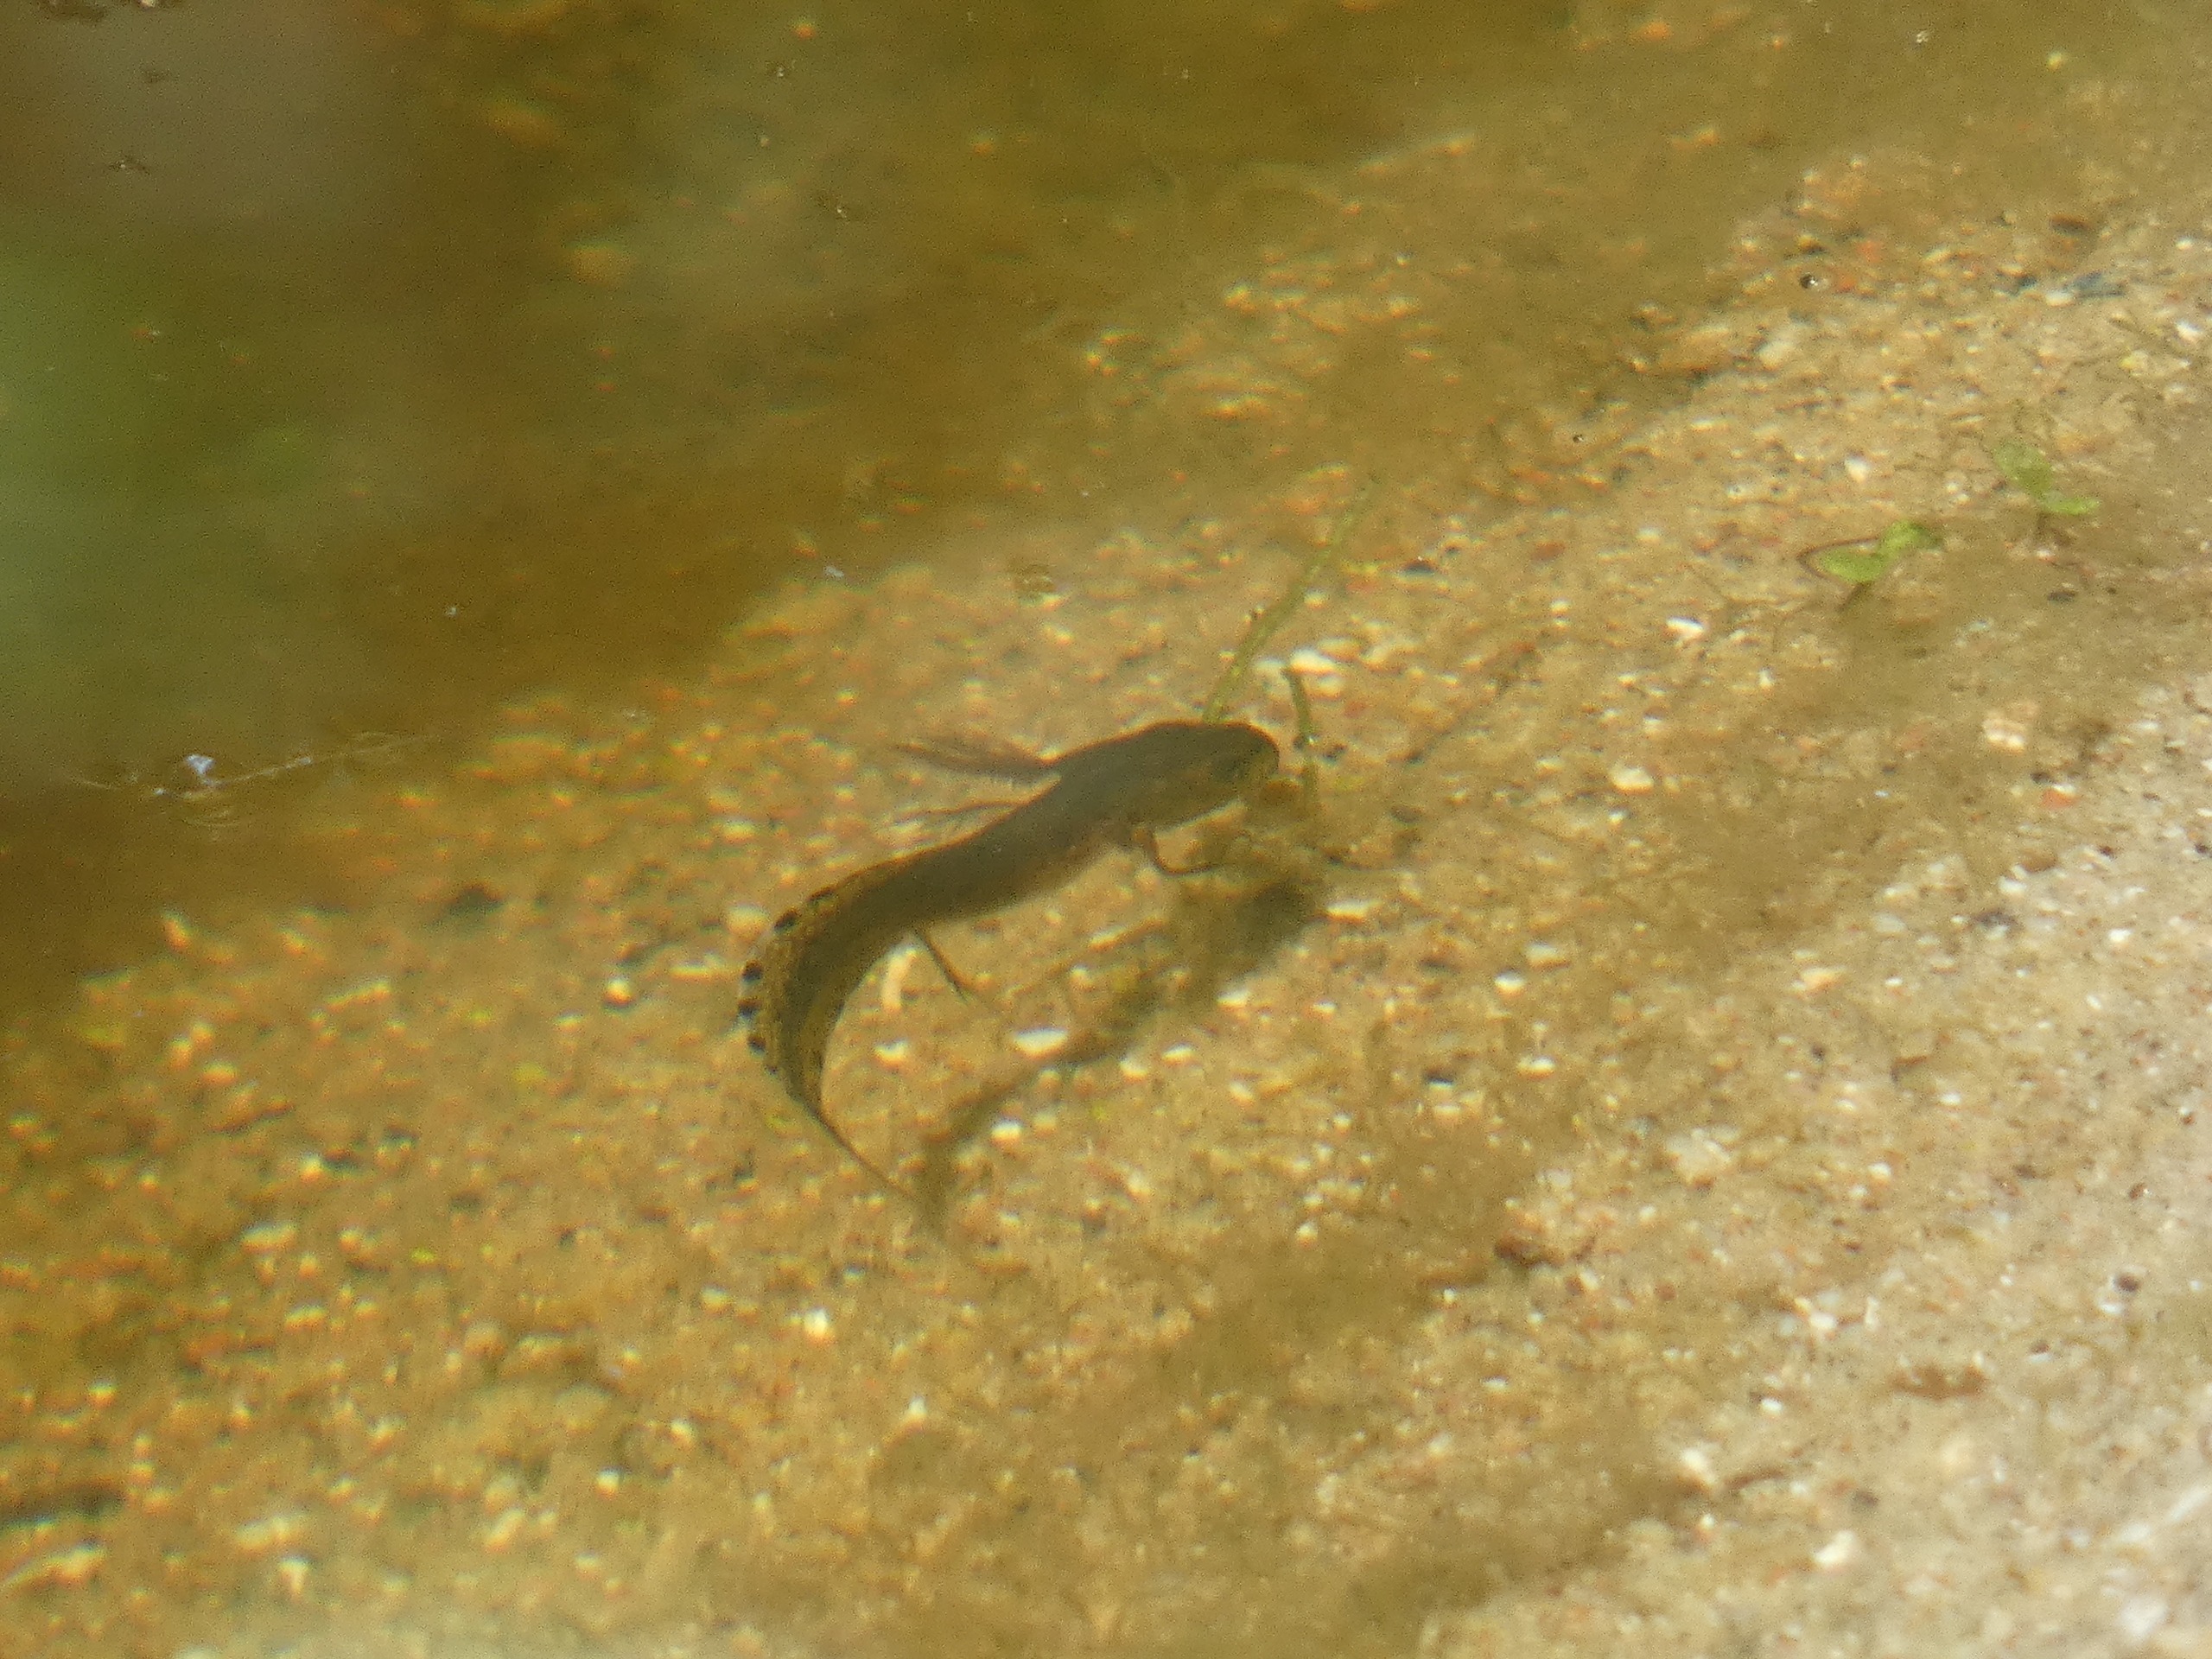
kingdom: Animalia
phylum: Chordata
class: Amphibia
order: Caudata
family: Salamandridae
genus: Triturus
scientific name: Triturus cristatus
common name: Stor vandsalamander
